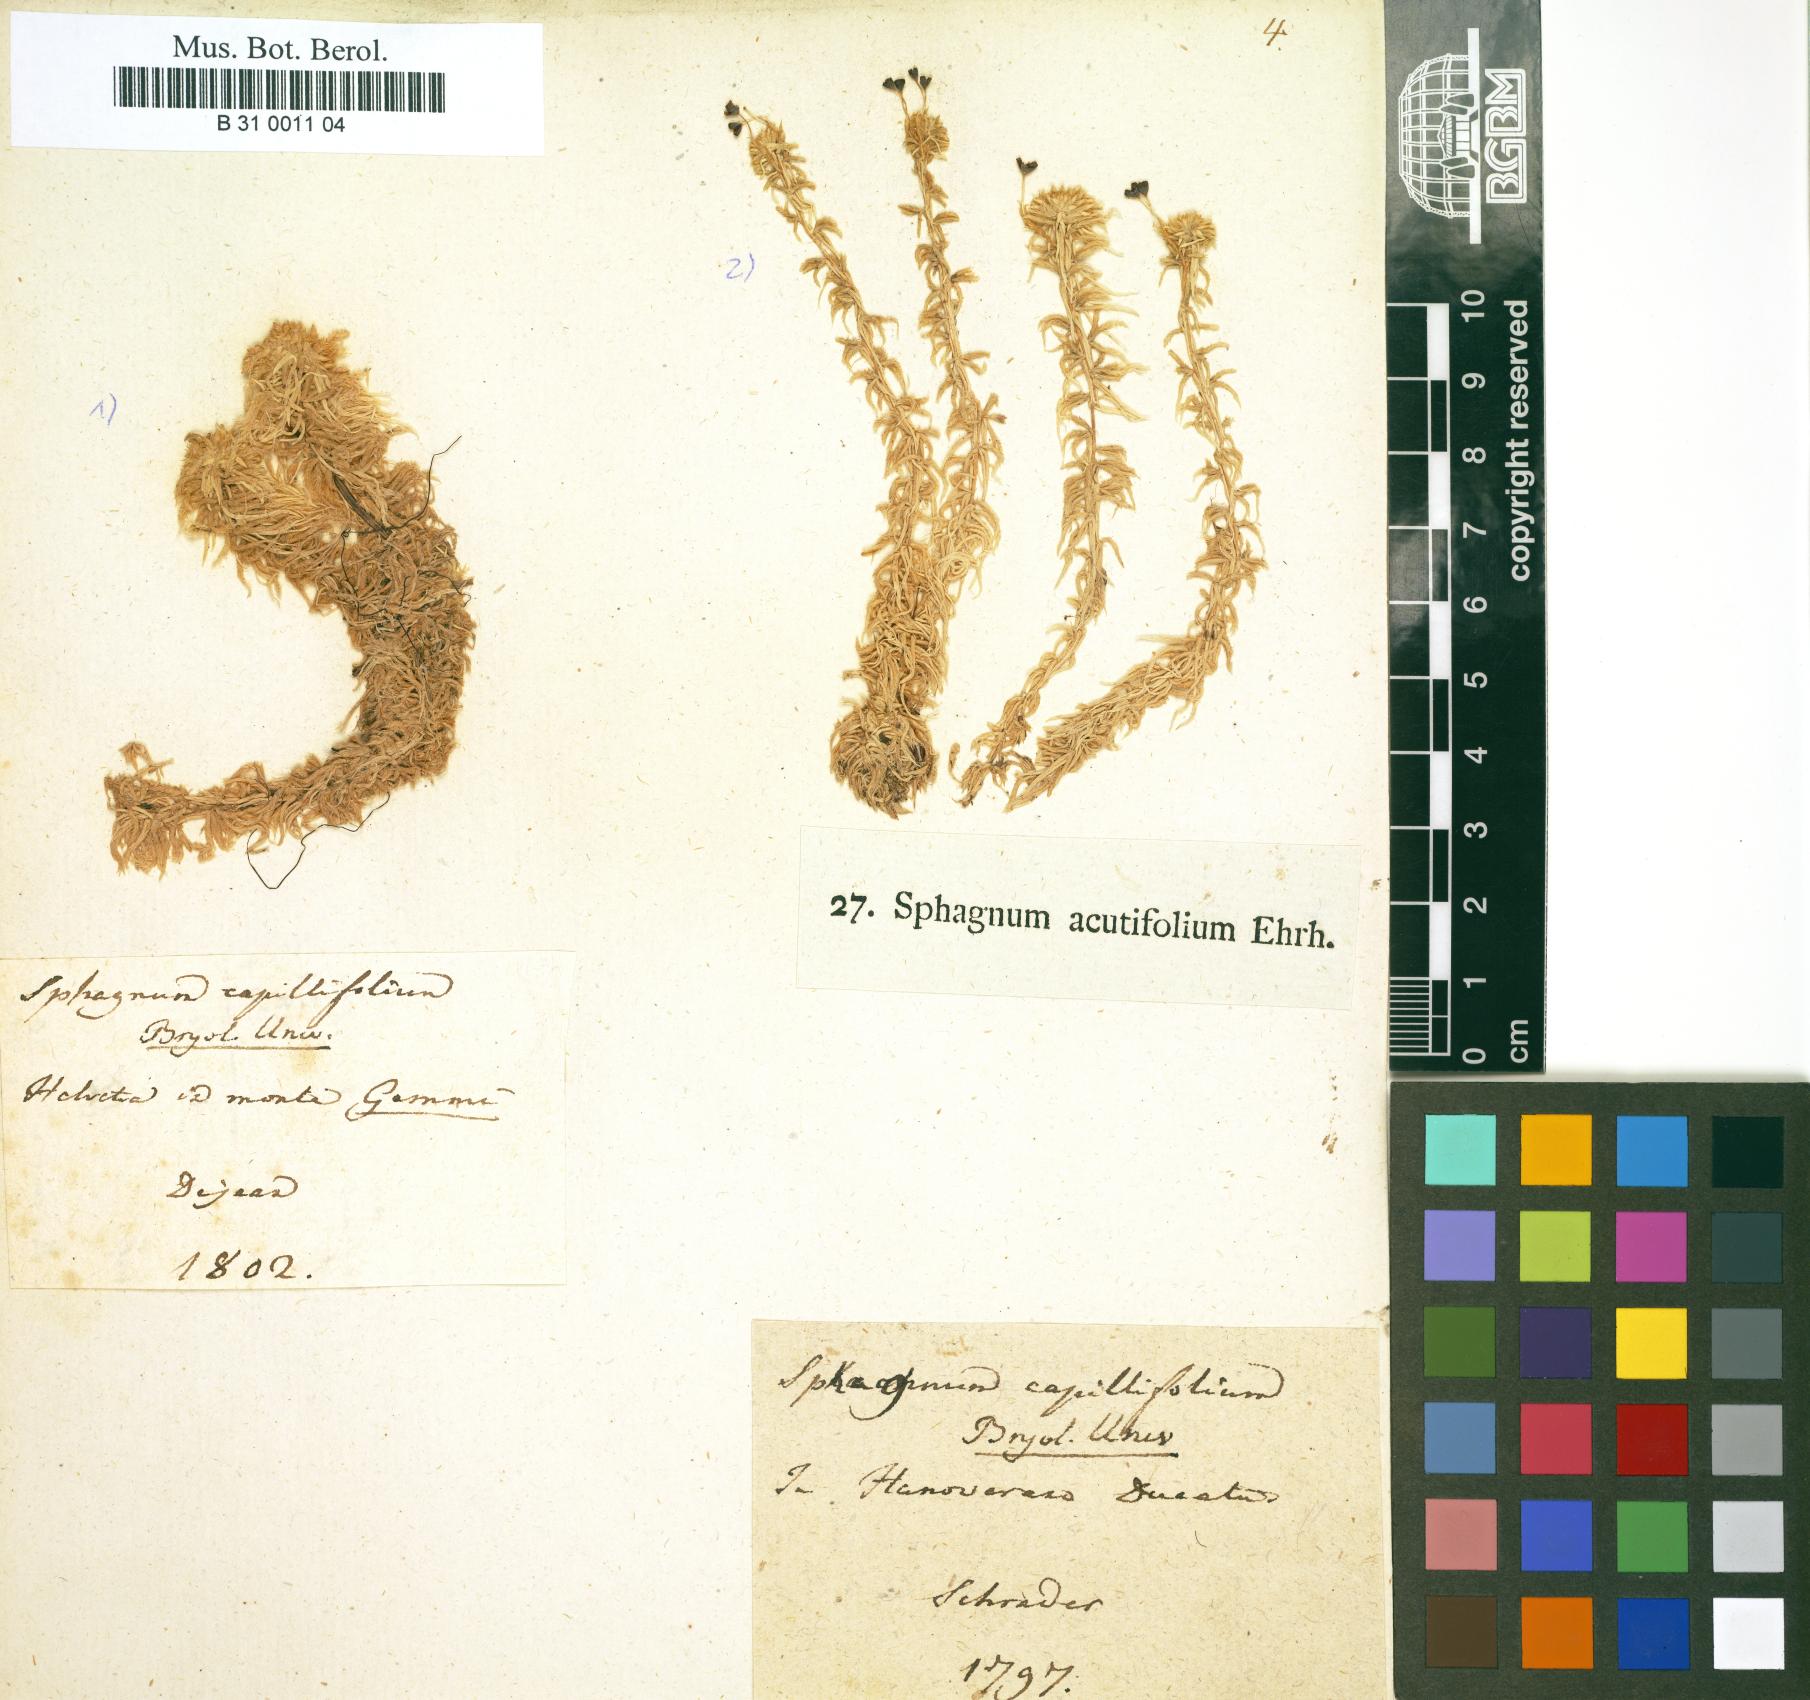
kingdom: Plantae
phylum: Bryophyta
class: Sphagnopsida
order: Sphagnales
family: Sphagnaceae
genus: Sphagnum
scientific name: Sphagnum capillifolium
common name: Small red peat moss
